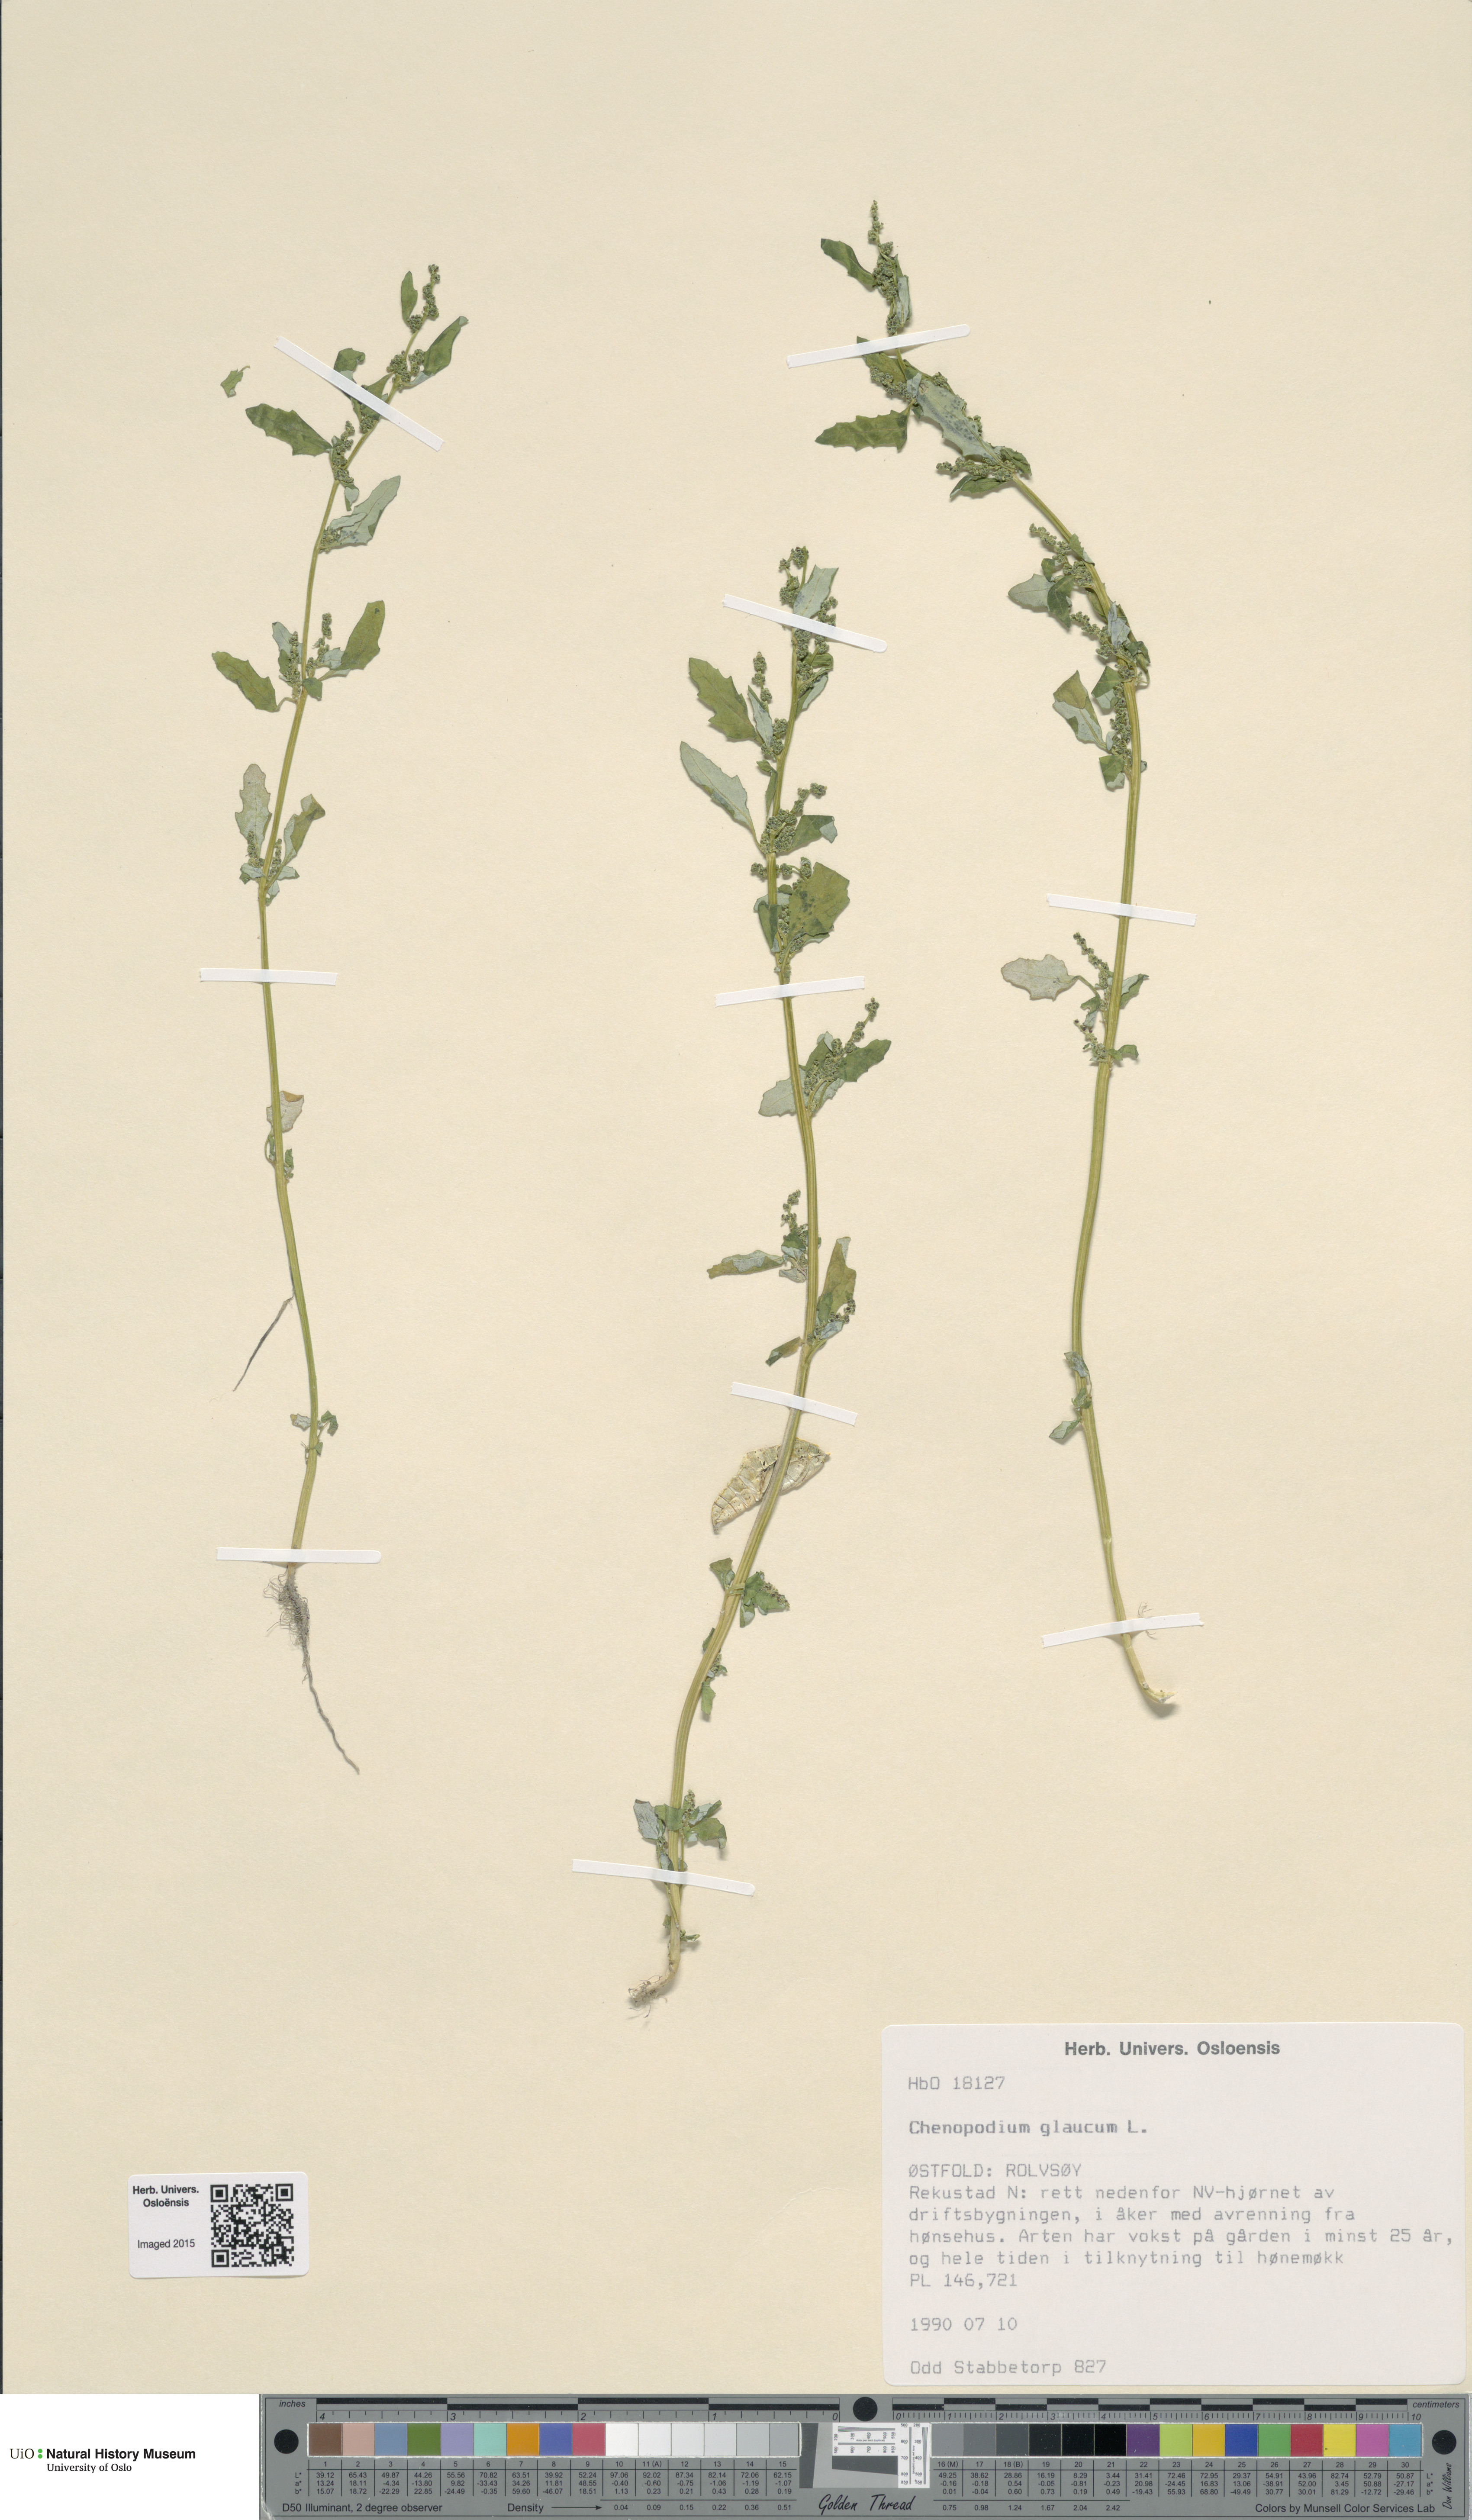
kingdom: Plantae
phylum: Tracheophyta
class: Magnoliopsida
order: Caryophyllales
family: Amaranthaceae
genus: Oxybasis
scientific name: Oxybasis glauca
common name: Glaucous goosefoot
